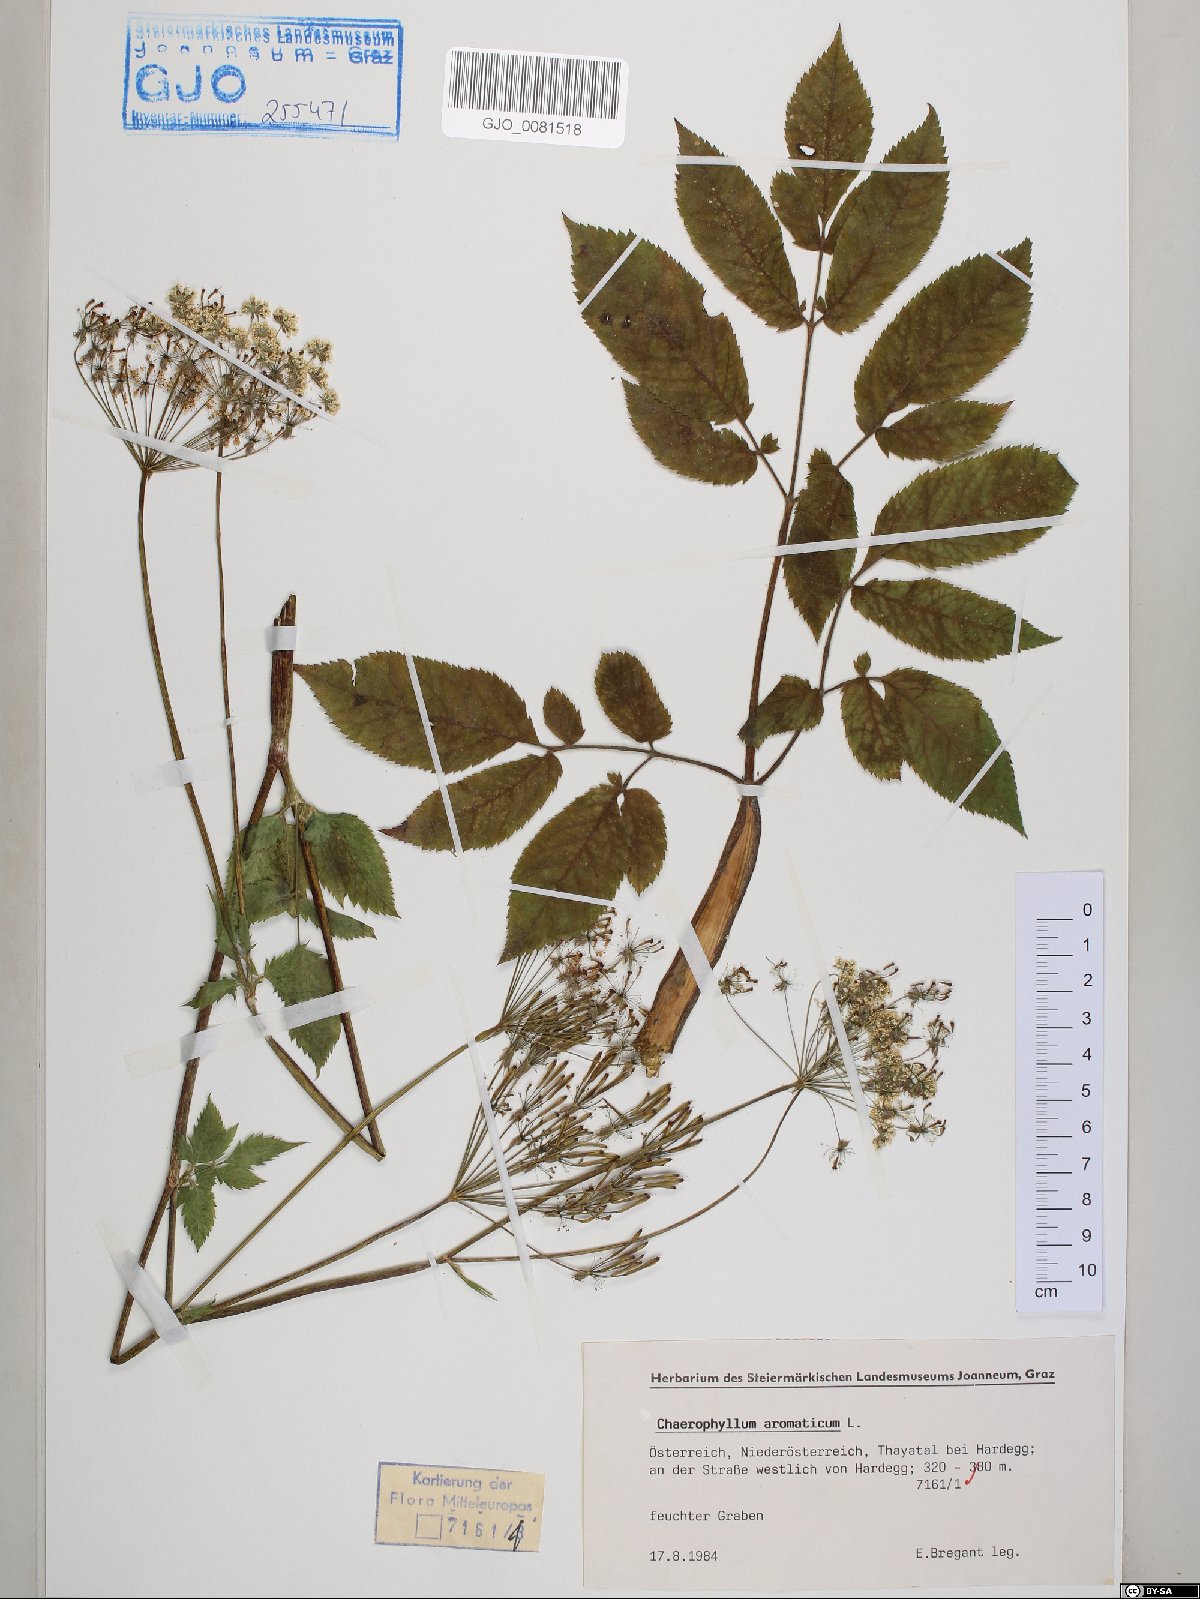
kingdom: Plantae
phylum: Tracheophyta
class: Magnoliopsida
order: Apiales
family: Apiaceae
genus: Chaerophyllum
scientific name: Chaerophyllum aromaticum
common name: Broadleaf chervil
